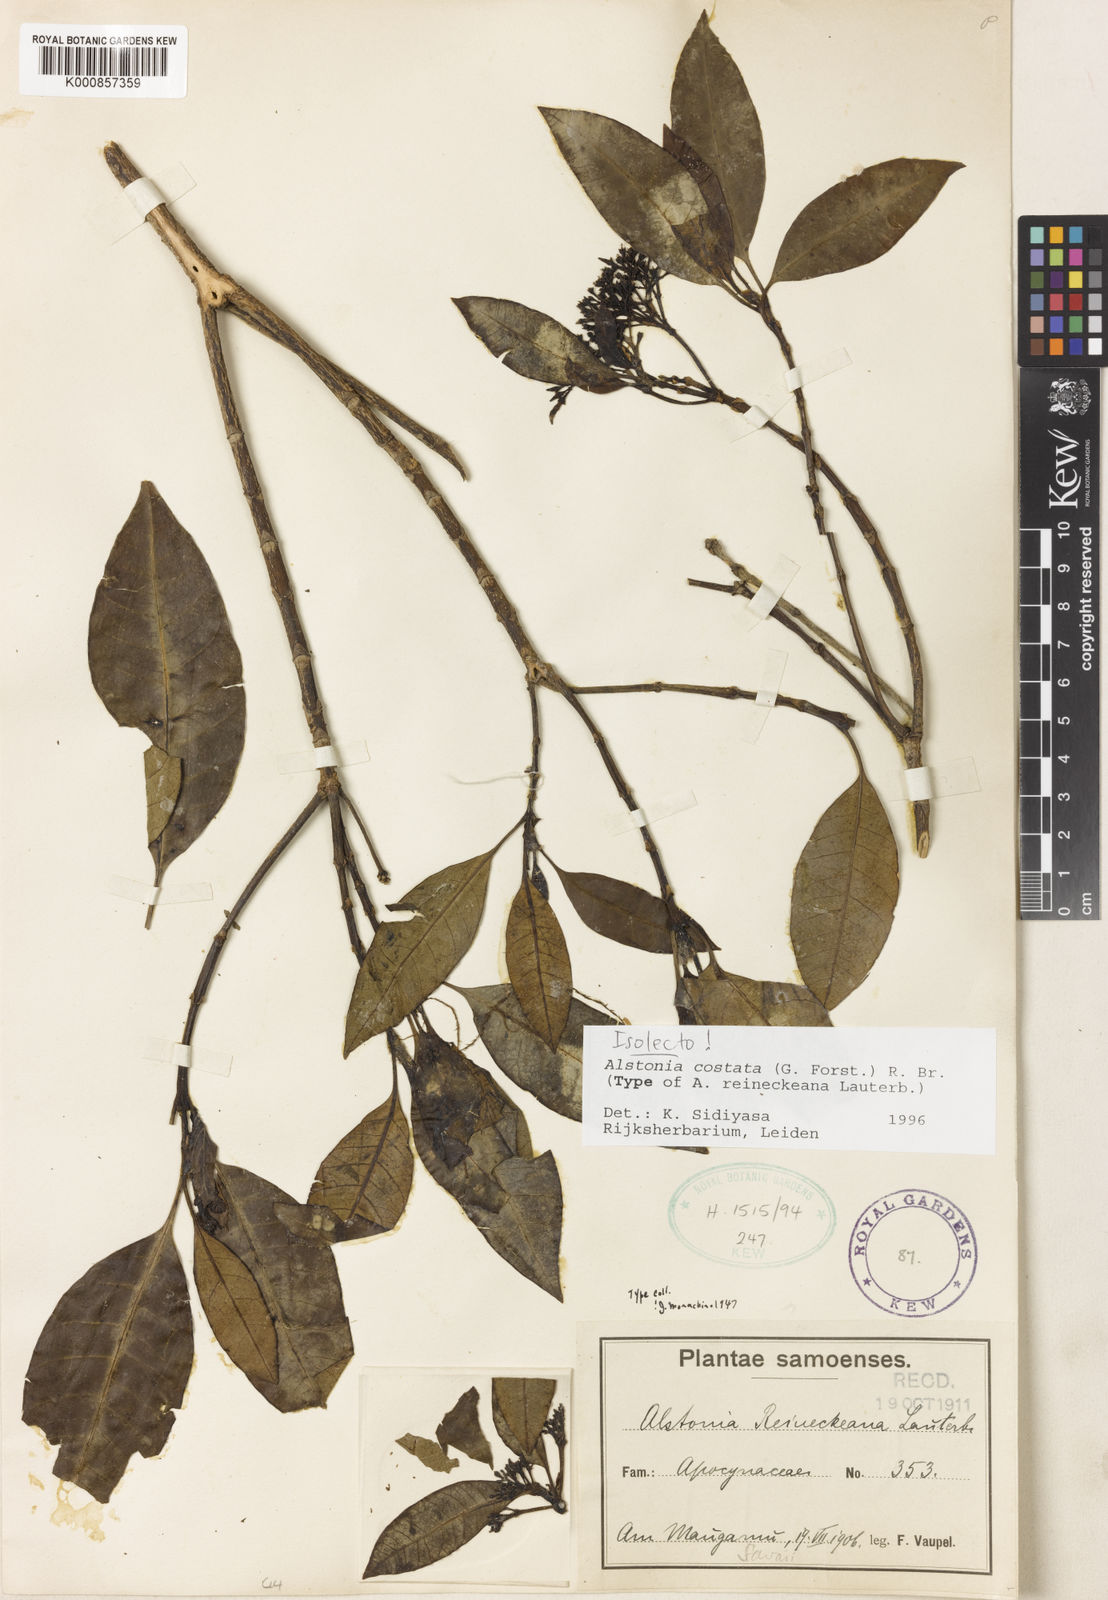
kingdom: Plantae
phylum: Tracheophyta
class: Magnoliopsida
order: Gentianales
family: Apocynaceae
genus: Alstonia
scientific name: Alstonia costata
